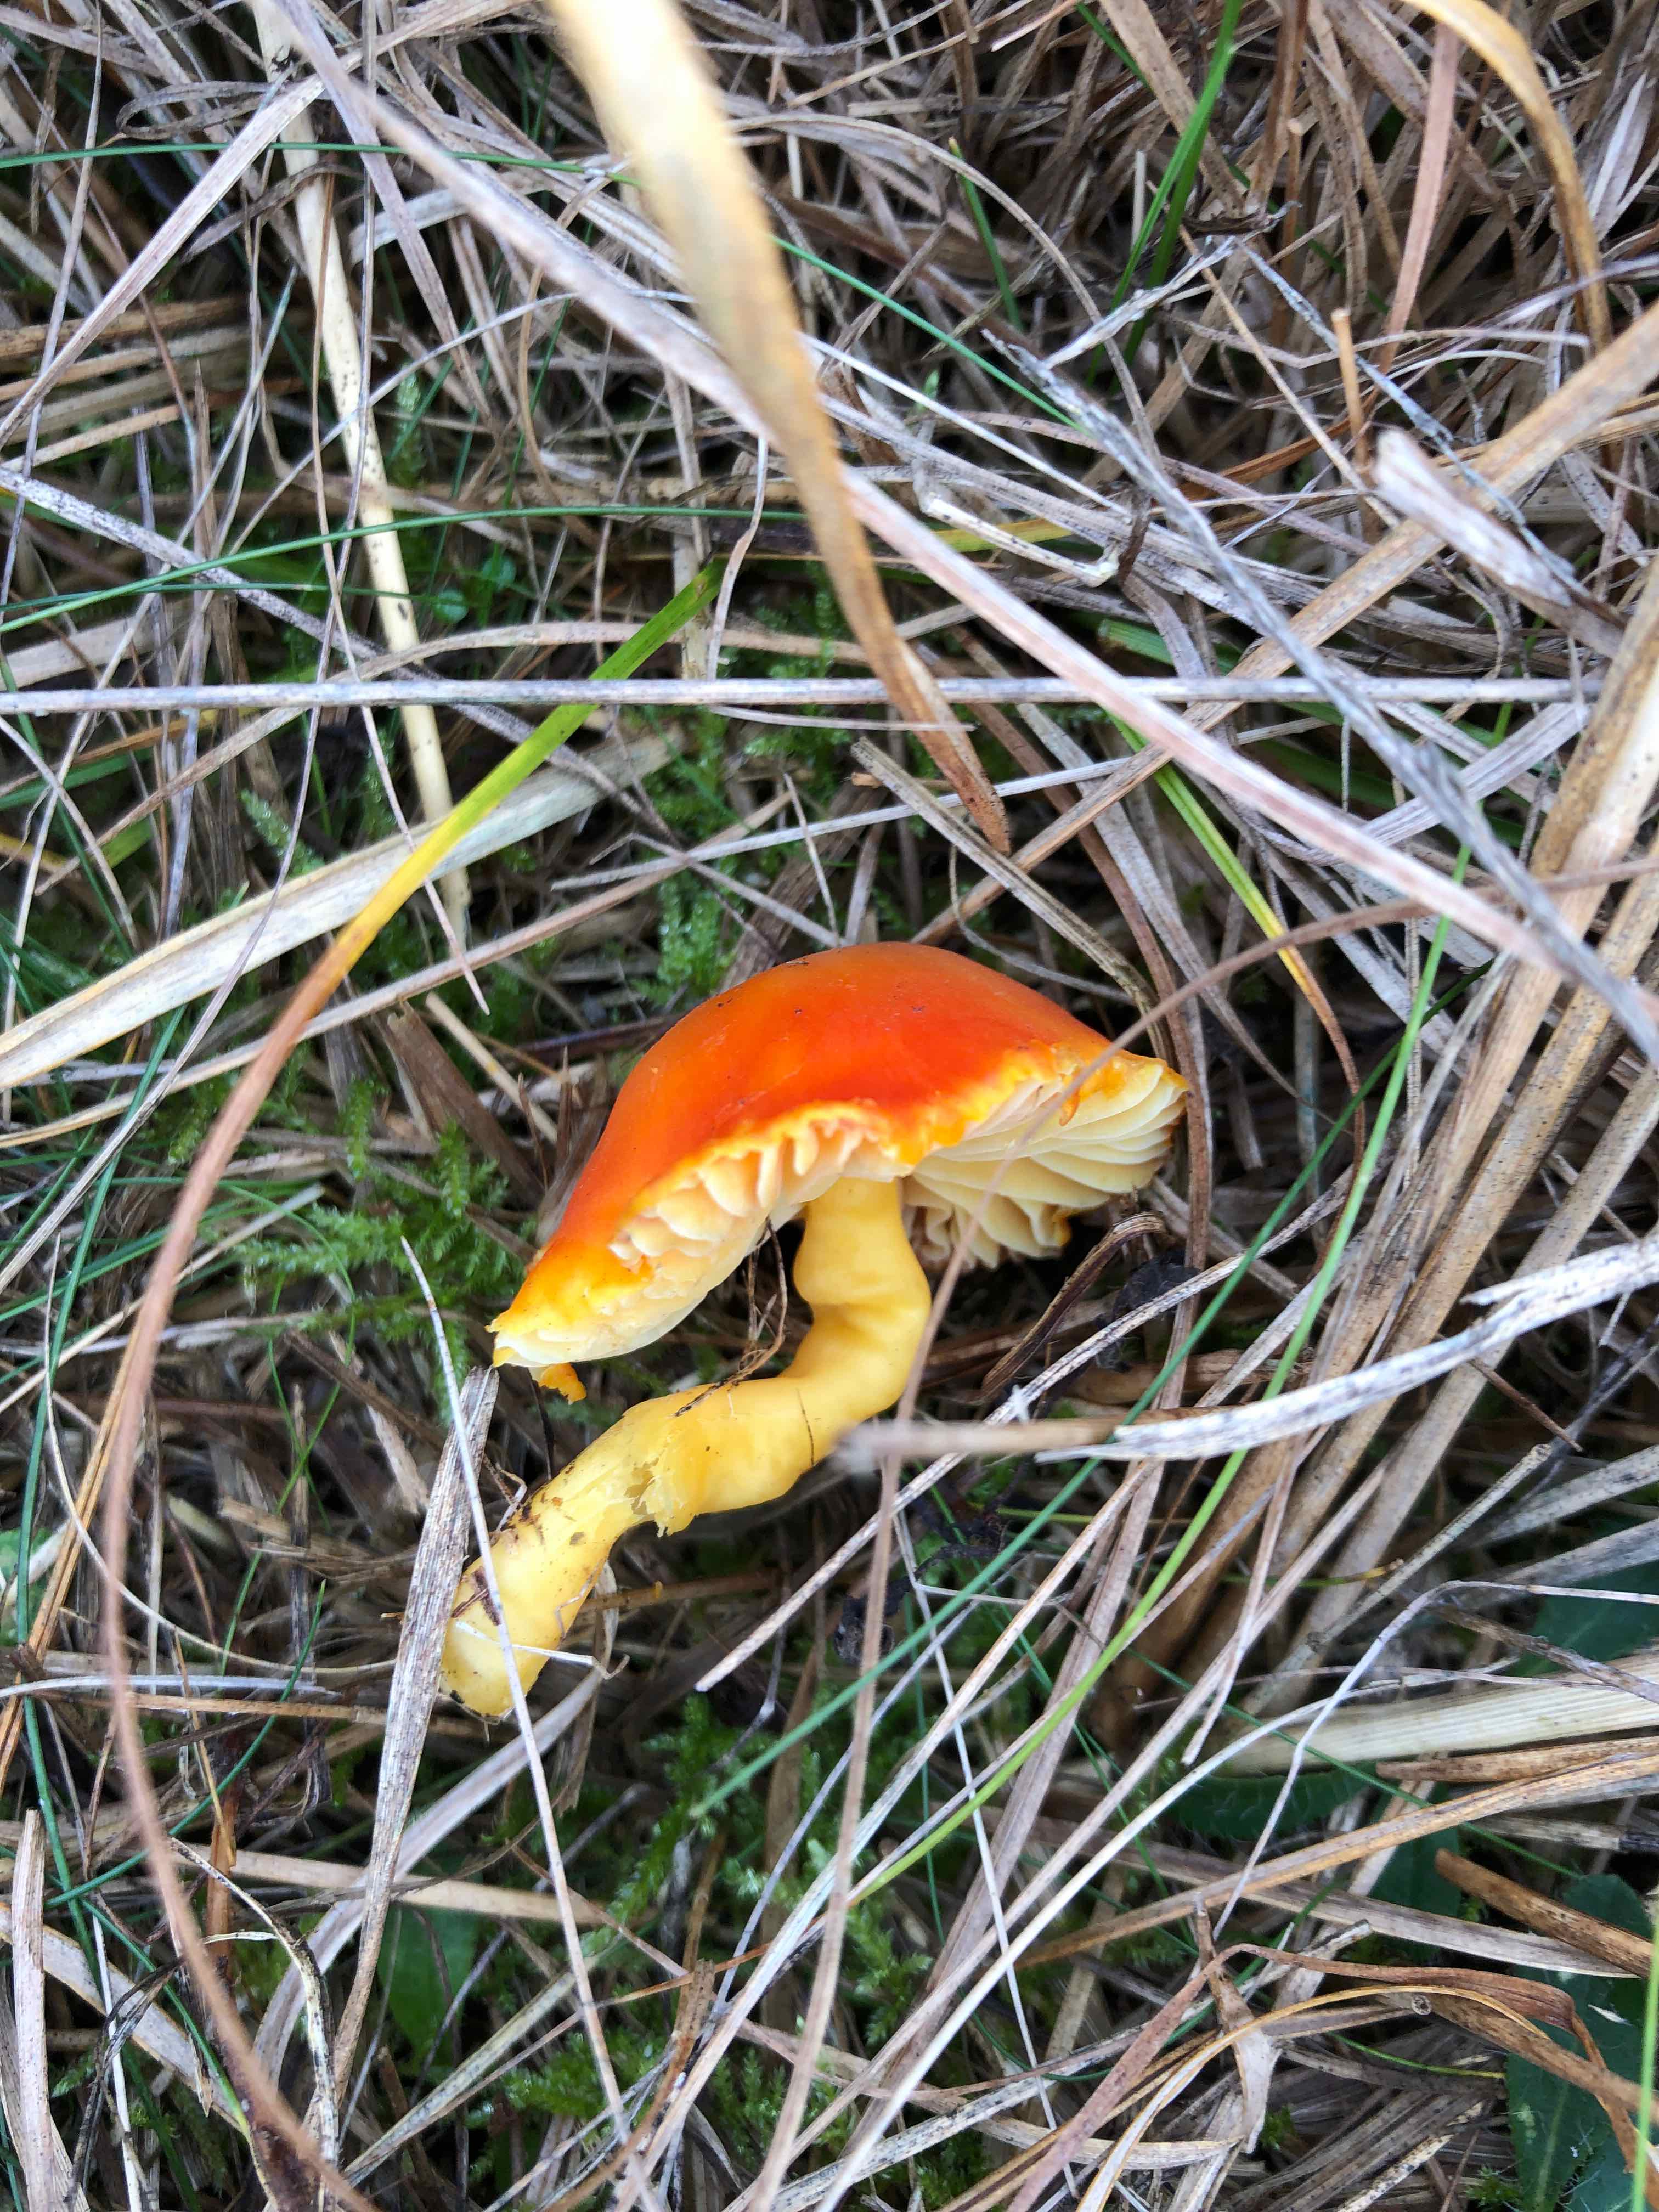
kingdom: Fungi
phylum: Basidiomycota
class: Agaricomycetes
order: Agaricales
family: Hygrophoraceae
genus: Hygrocybe
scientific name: Hygrocybe reidii
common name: honning-vokshat
